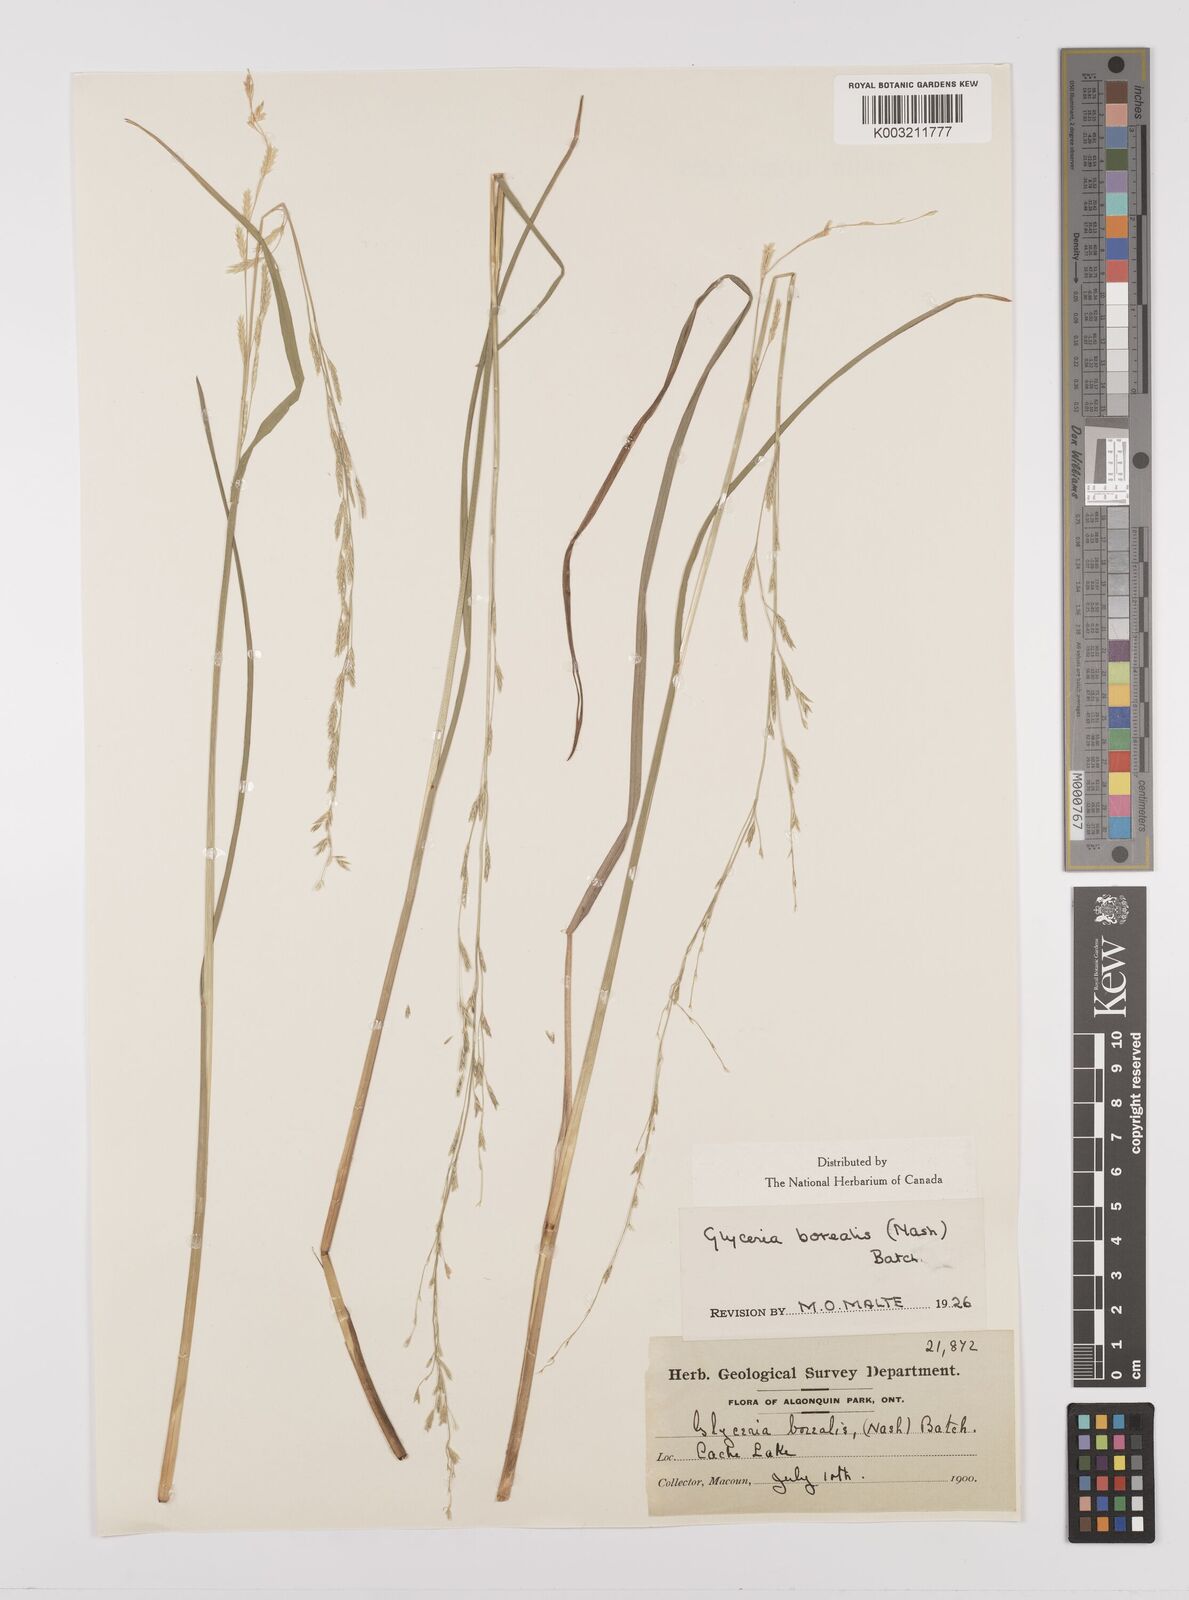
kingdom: Plantae
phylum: Tracheophyta
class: Liliopsida
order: Poales
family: Poaceae
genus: Glyceria
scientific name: Glyceria borealis
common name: Boreal glyceria
